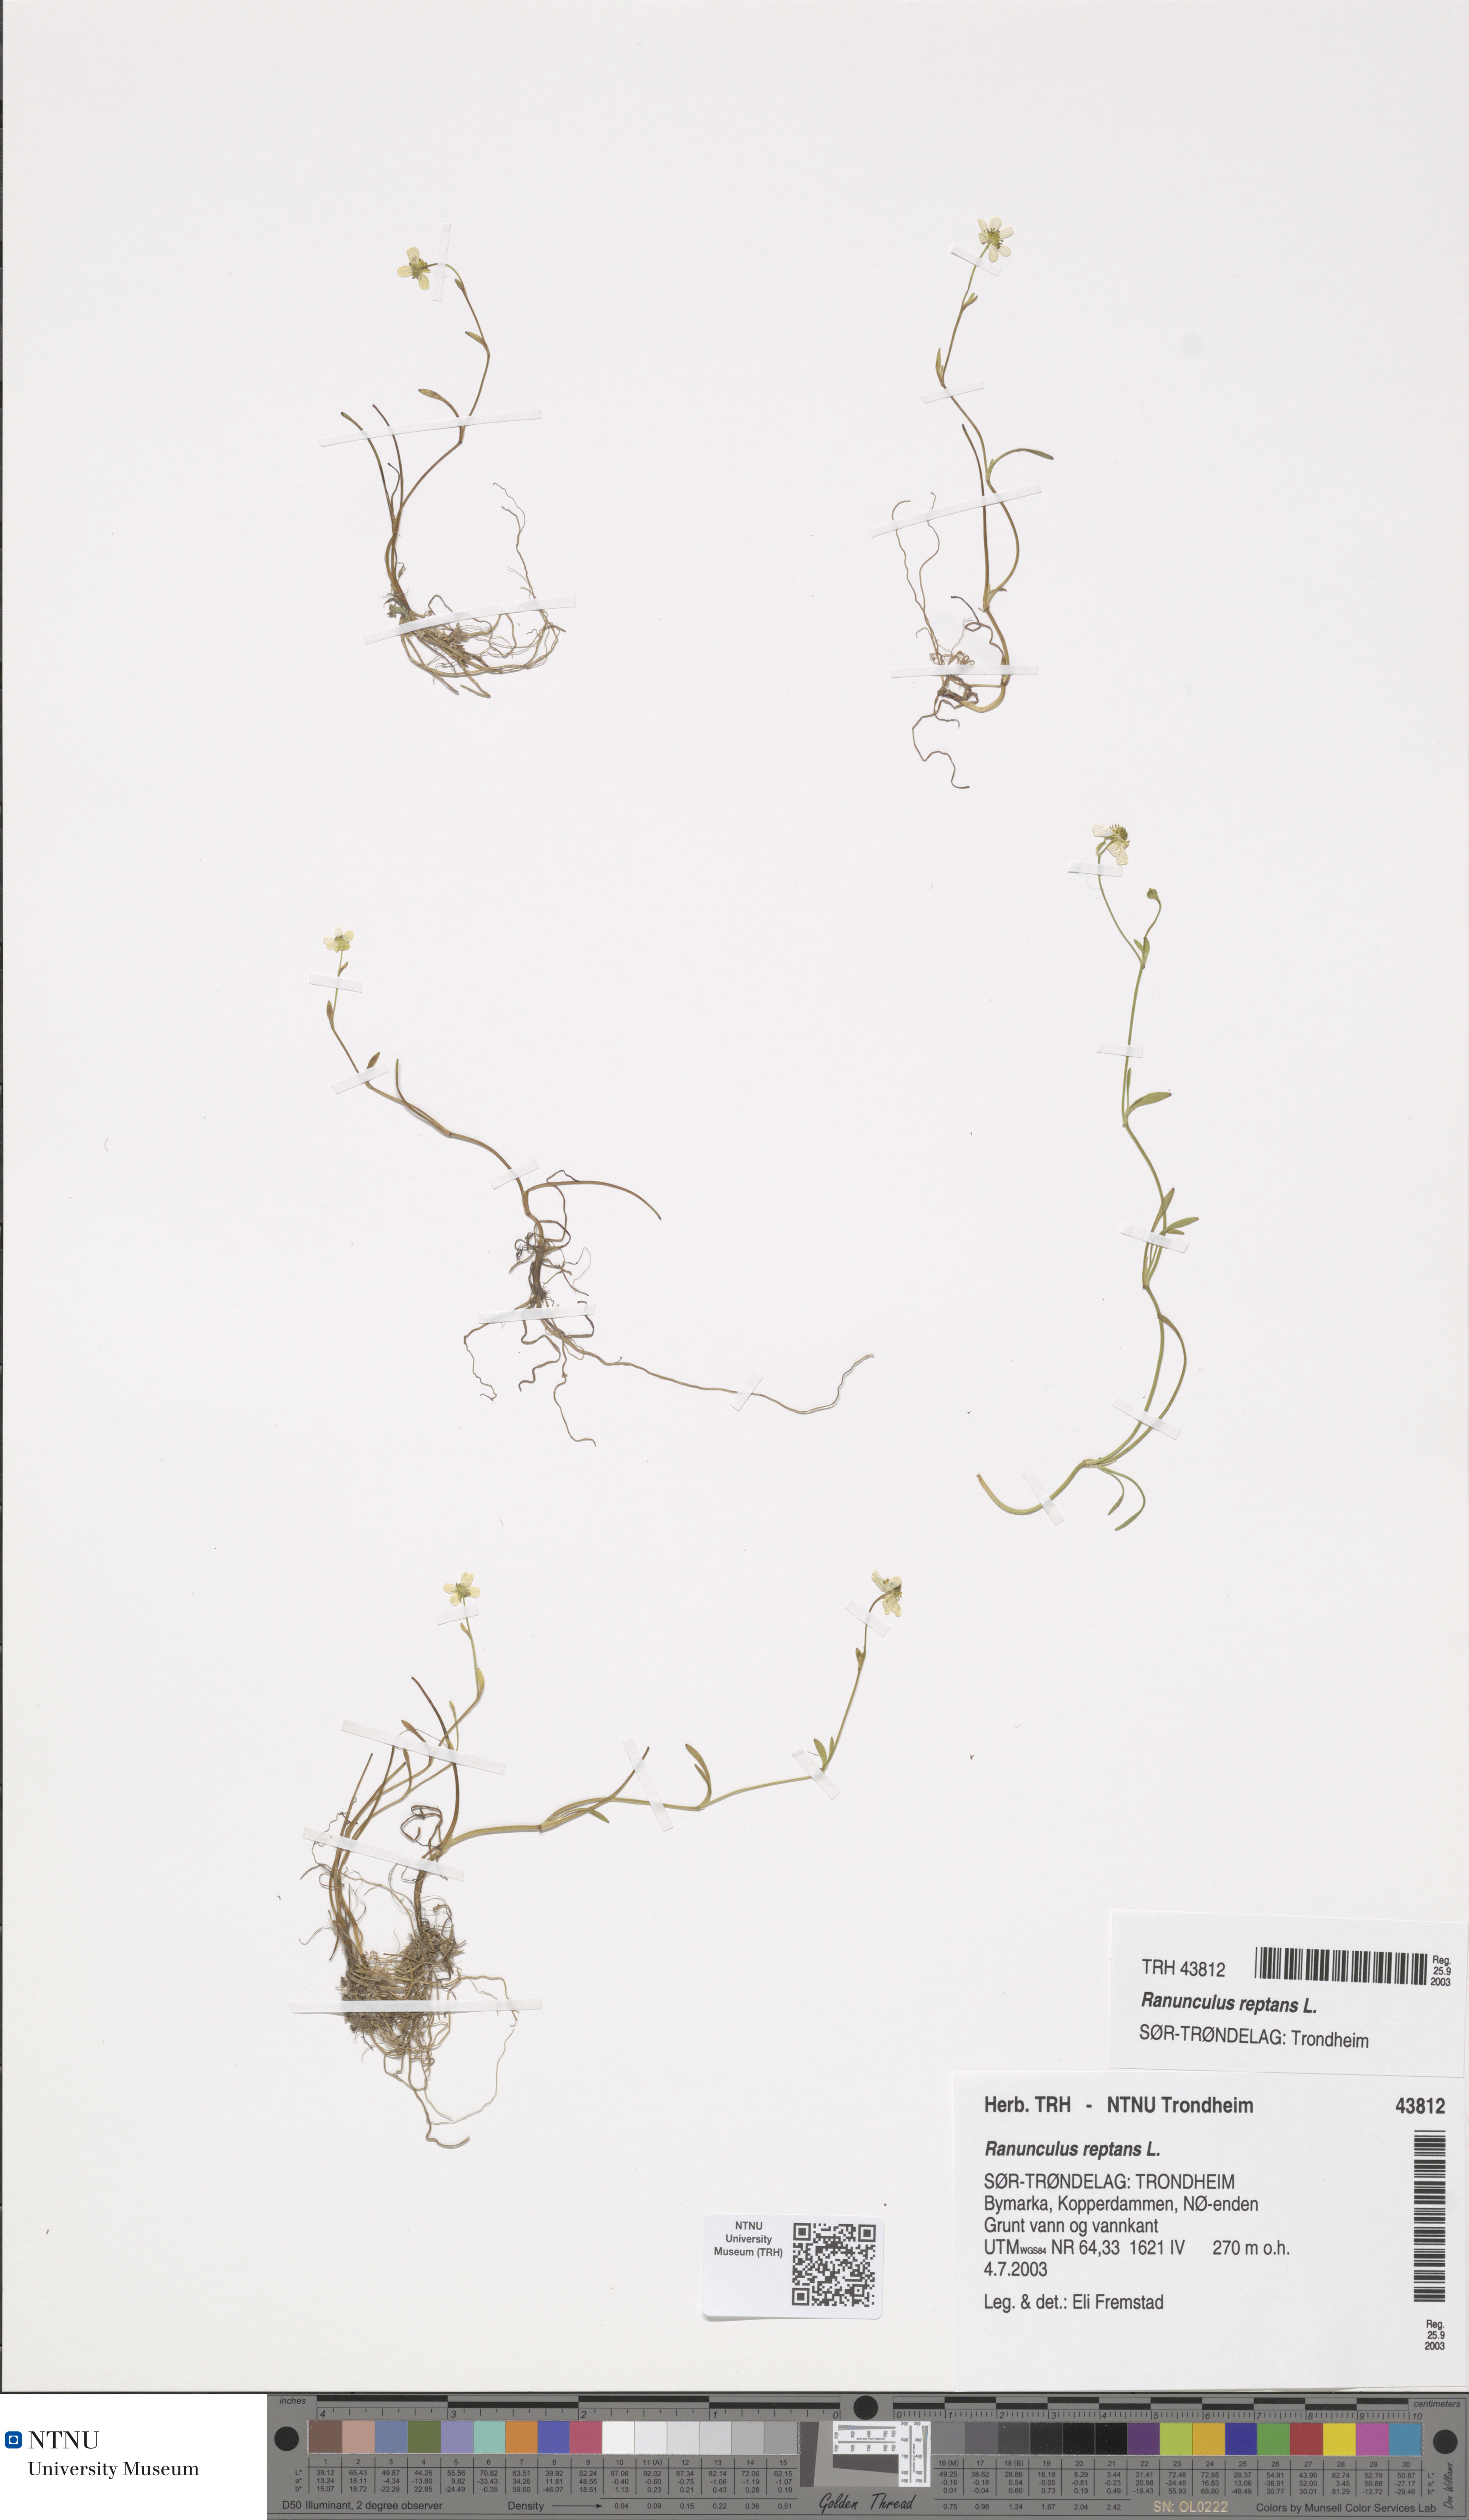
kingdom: Plantae
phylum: Tracheophyta
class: Magnoliopsida
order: Ranunculales
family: Ranunculaceae
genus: Ranunculus
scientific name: Ranunculus reptans
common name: Creeping spearwort
